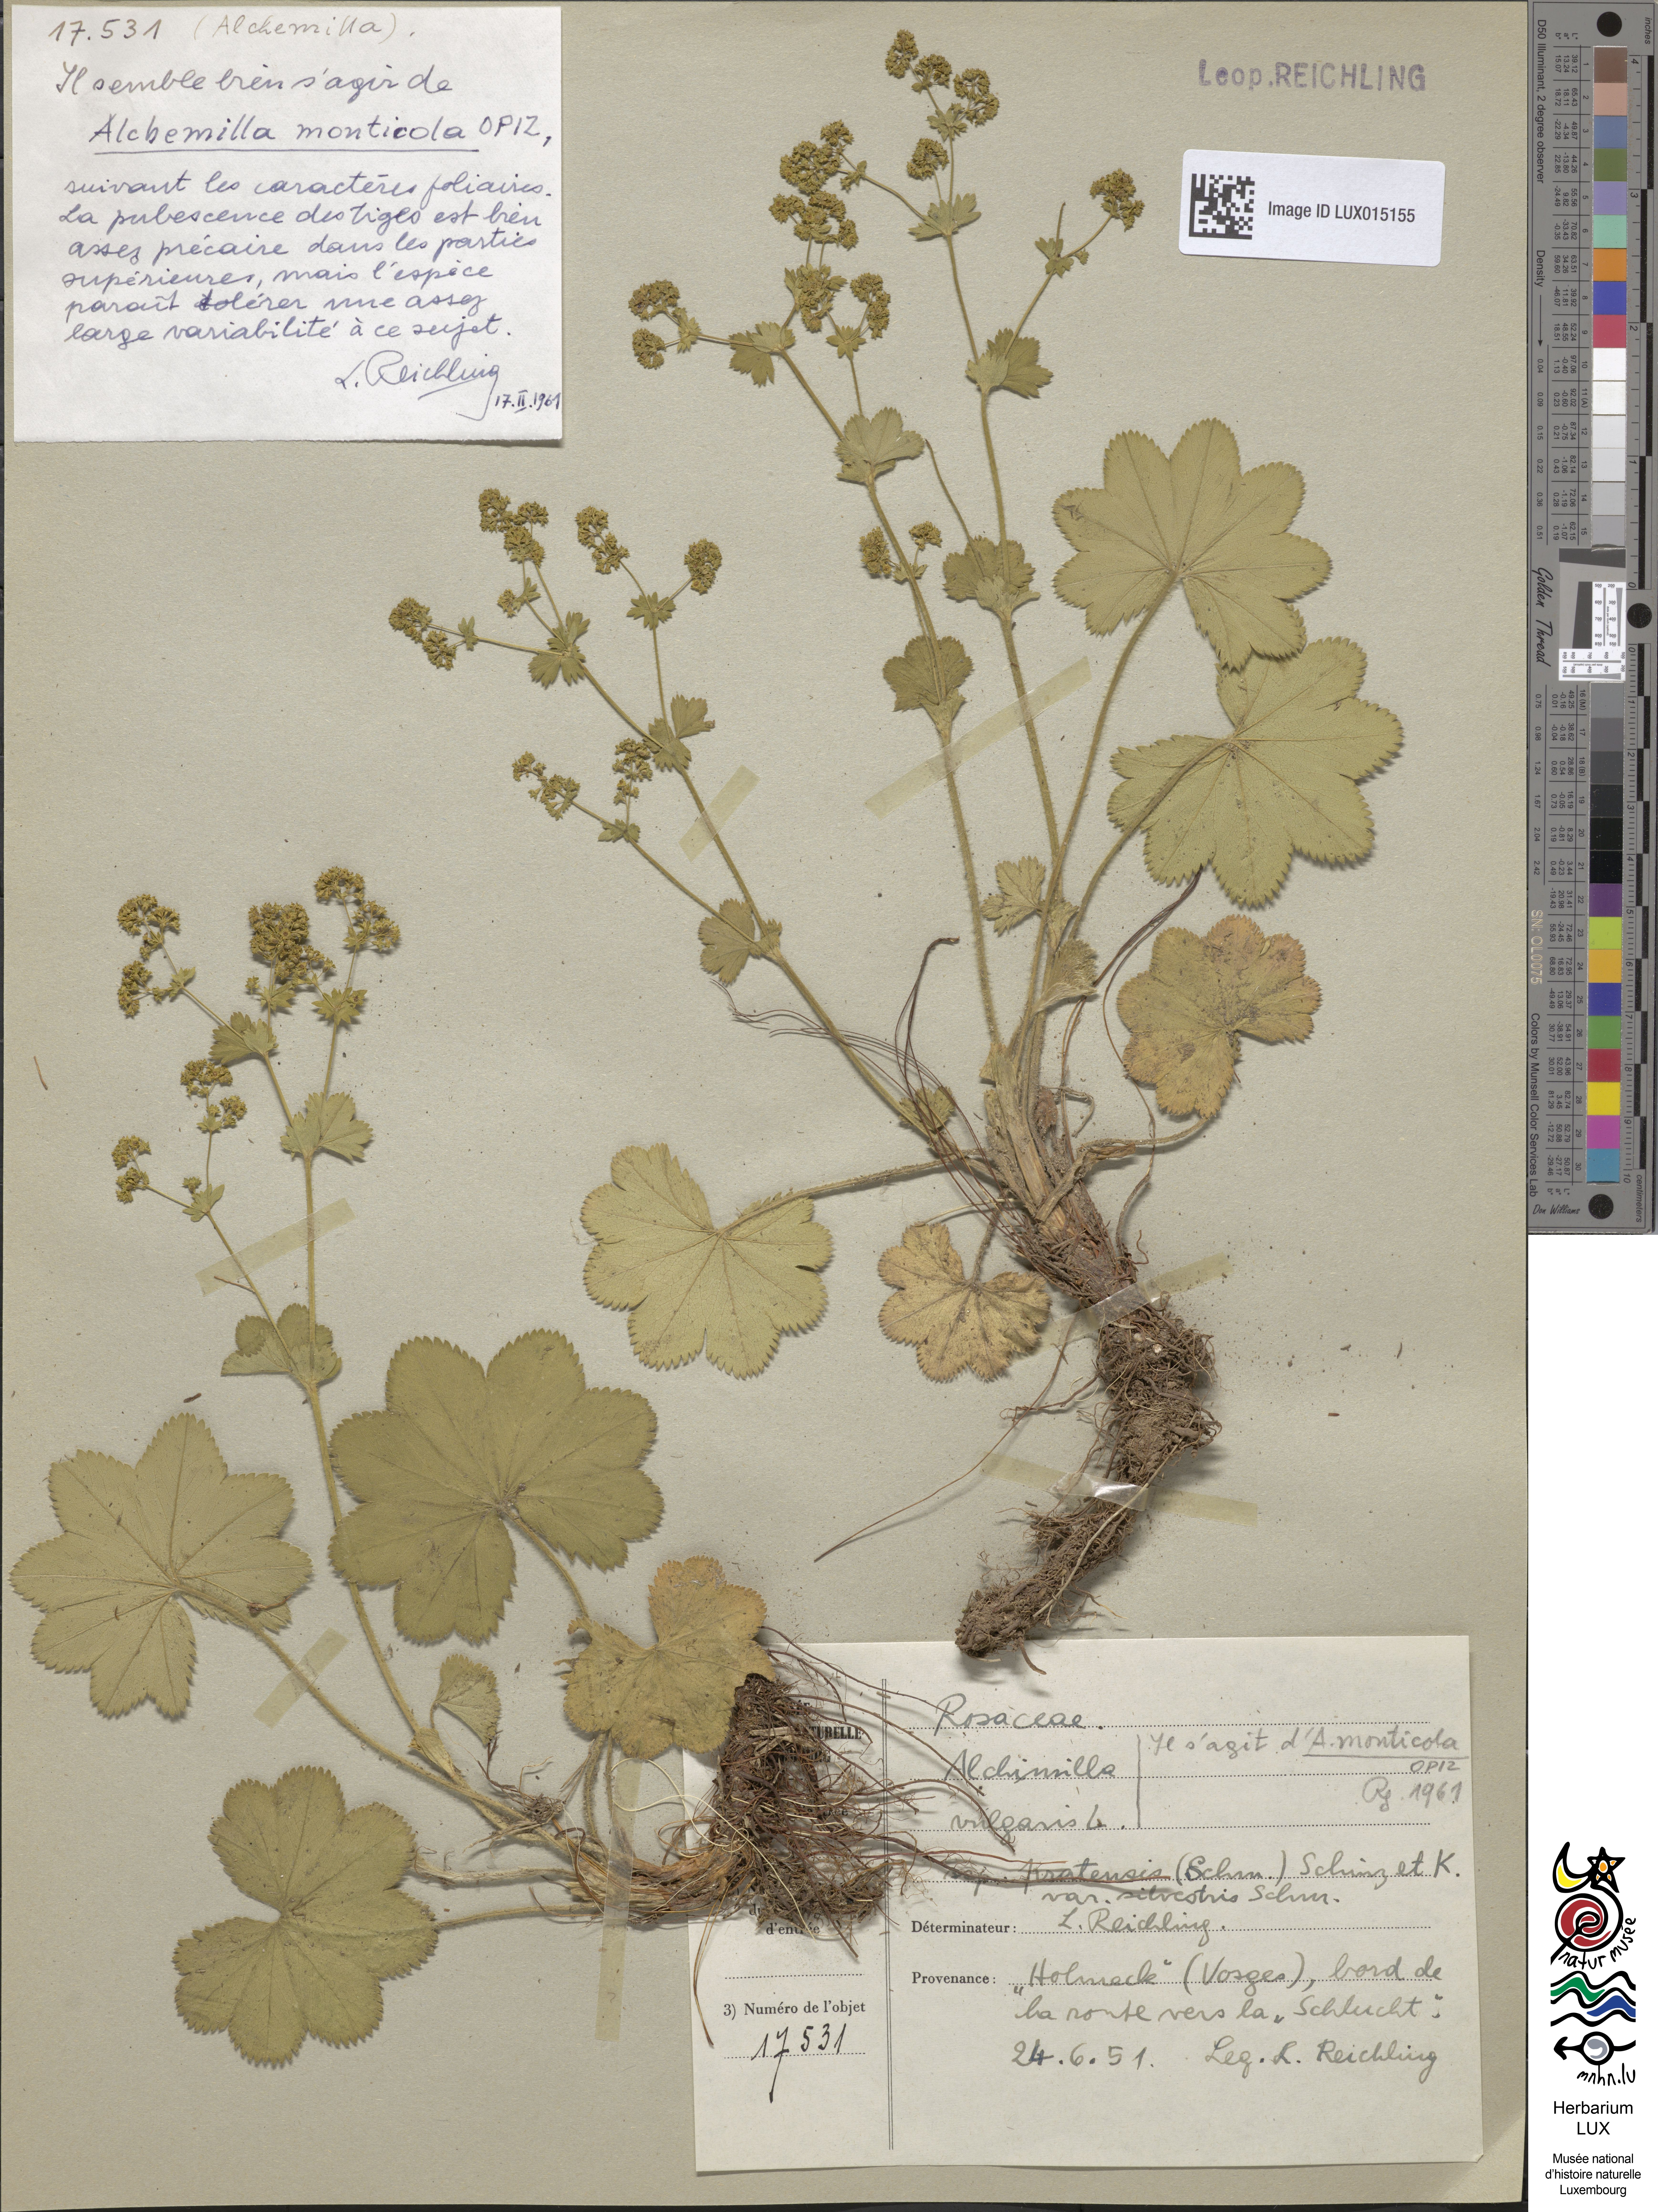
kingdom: Plantae
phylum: Tracheophyta
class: Magnoliopsida
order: Rosales
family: Rosaceae
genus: Alchemilla
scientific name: Alchemilla
